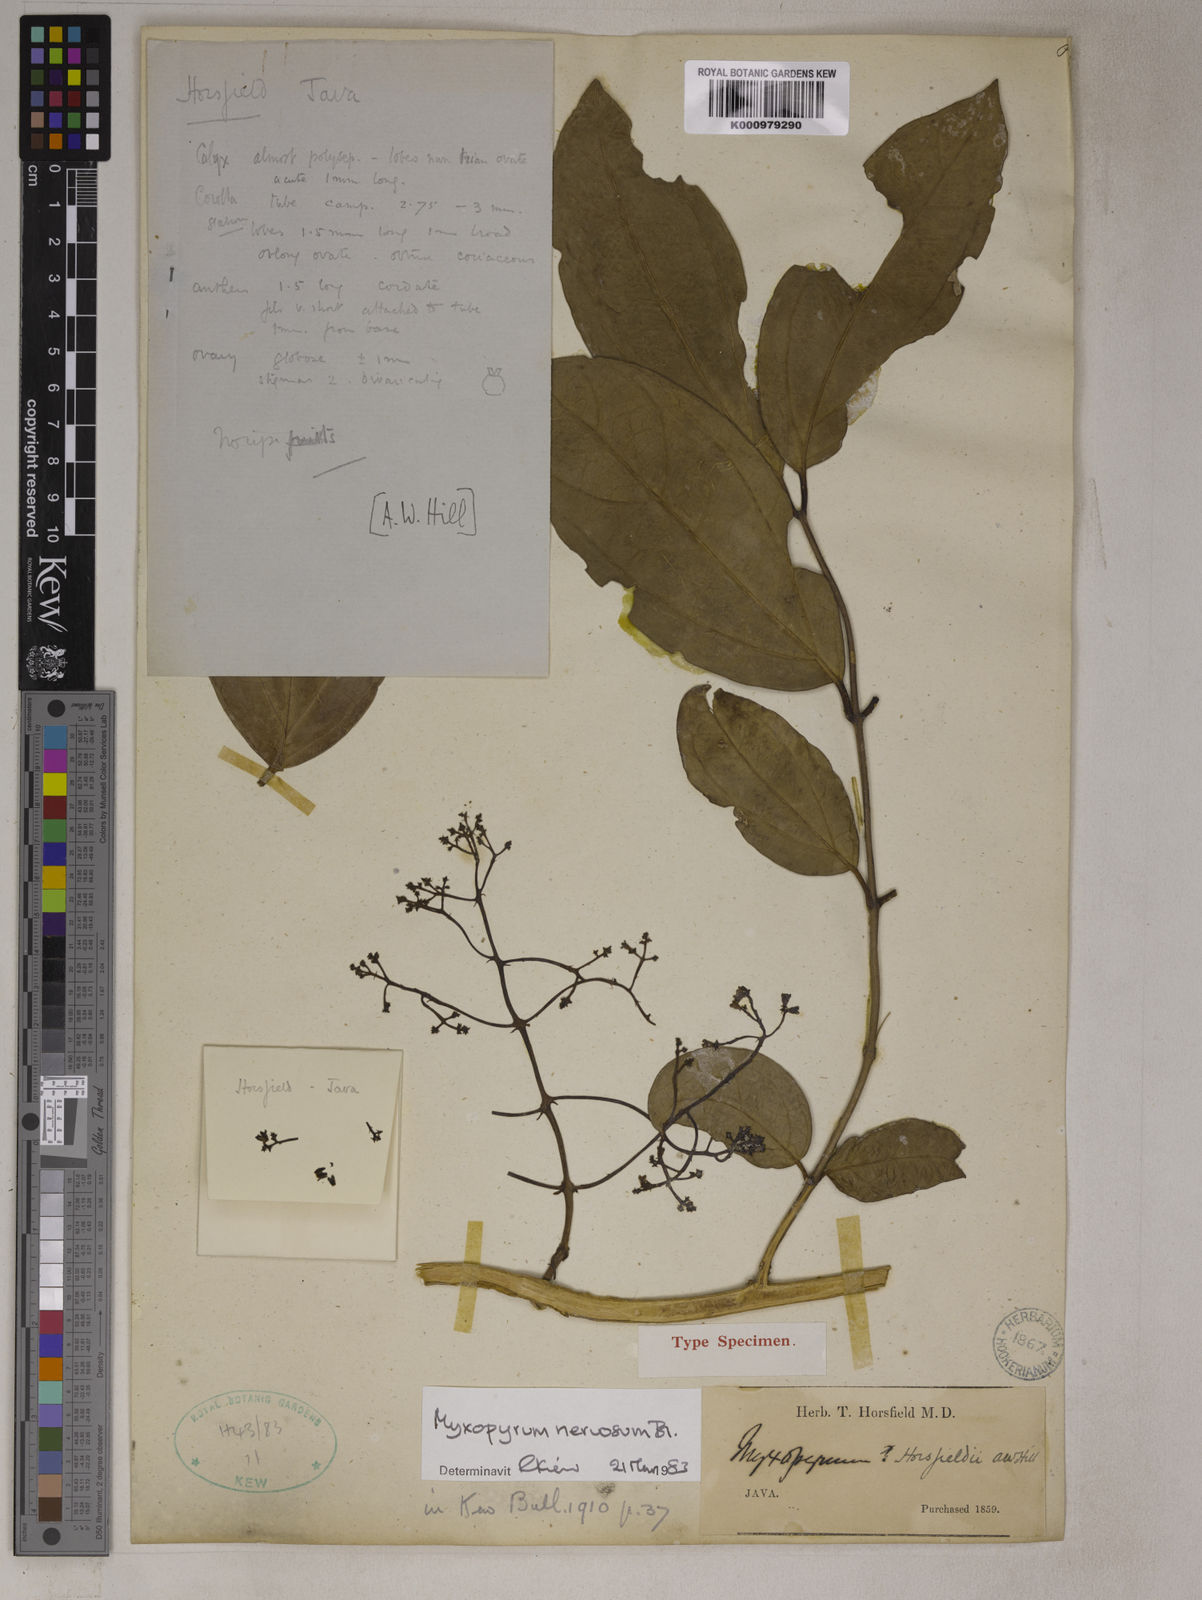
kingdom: Plantae
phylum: Tracheophyta
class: Magnoliopsida
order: Lamiales
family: Oleaceae
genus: Myxopyrum
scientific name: Myxopyrum nervosum
